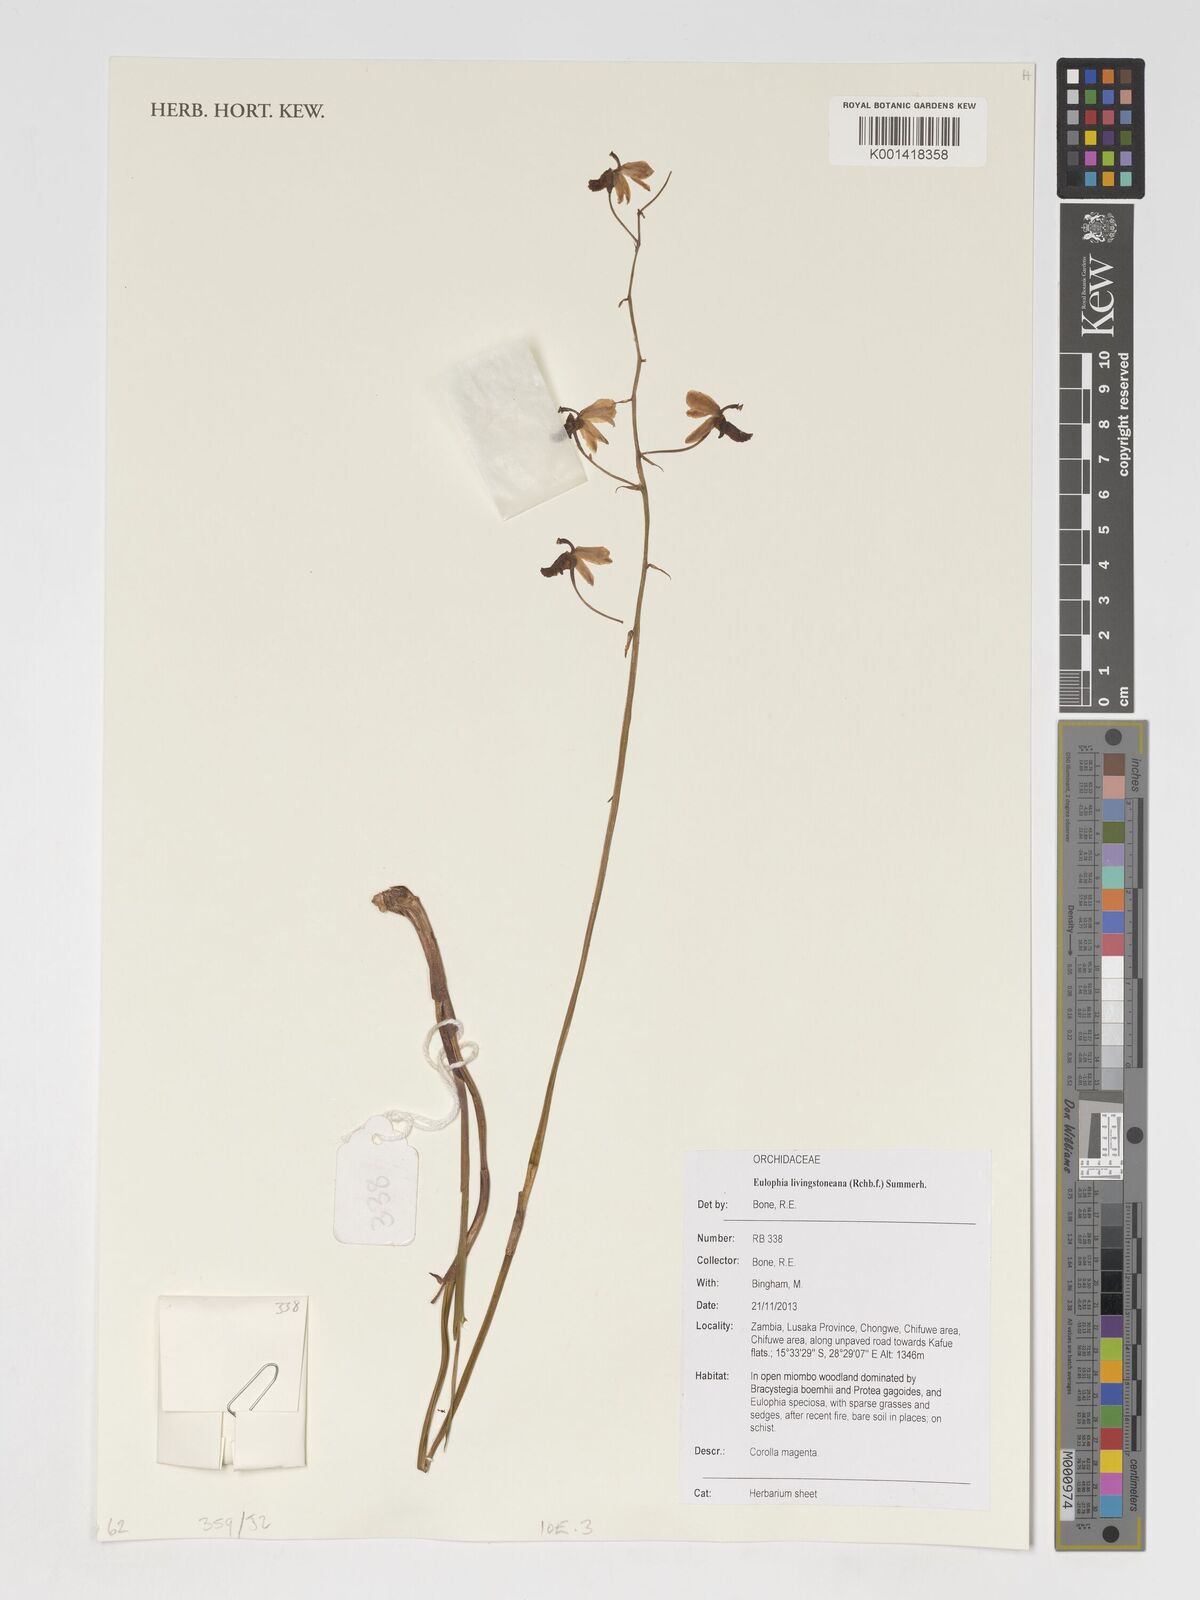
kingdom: Plantae
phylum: Tracheophyta
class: Liliopsida
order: Asparagales
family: Orchidaceae
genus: Eulophia
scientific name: Eulophia livingstoneana
